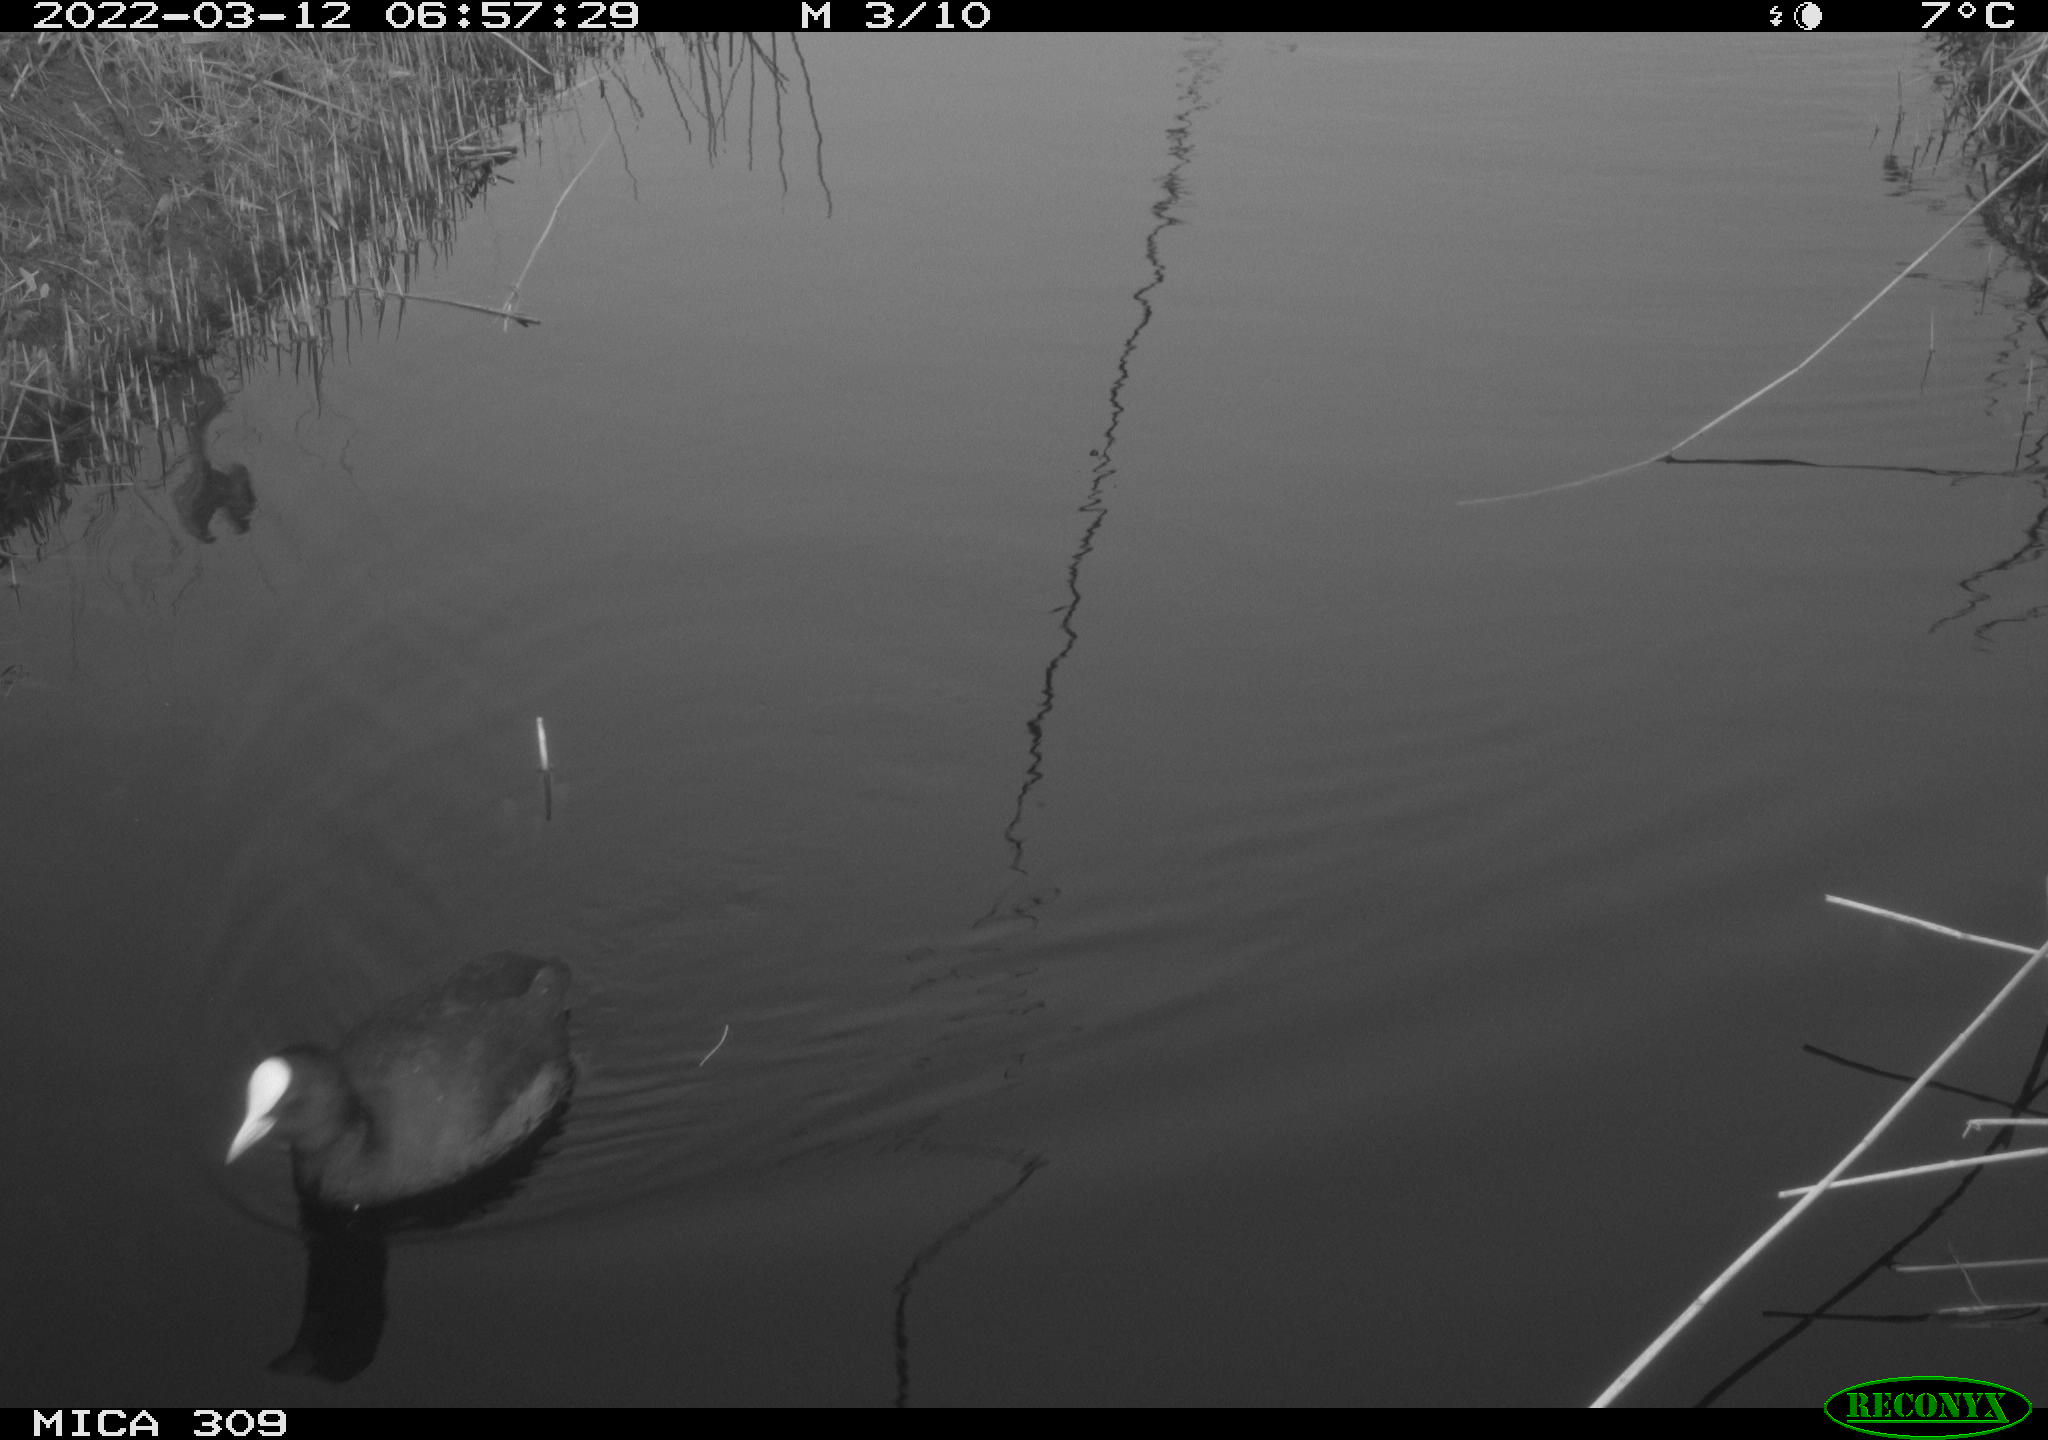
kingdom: Animalia
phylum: Chordata
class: Aves
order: Gruiformes
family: Rallidae
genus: Fulica
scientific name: Fulica atra
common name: Eurasian coot
